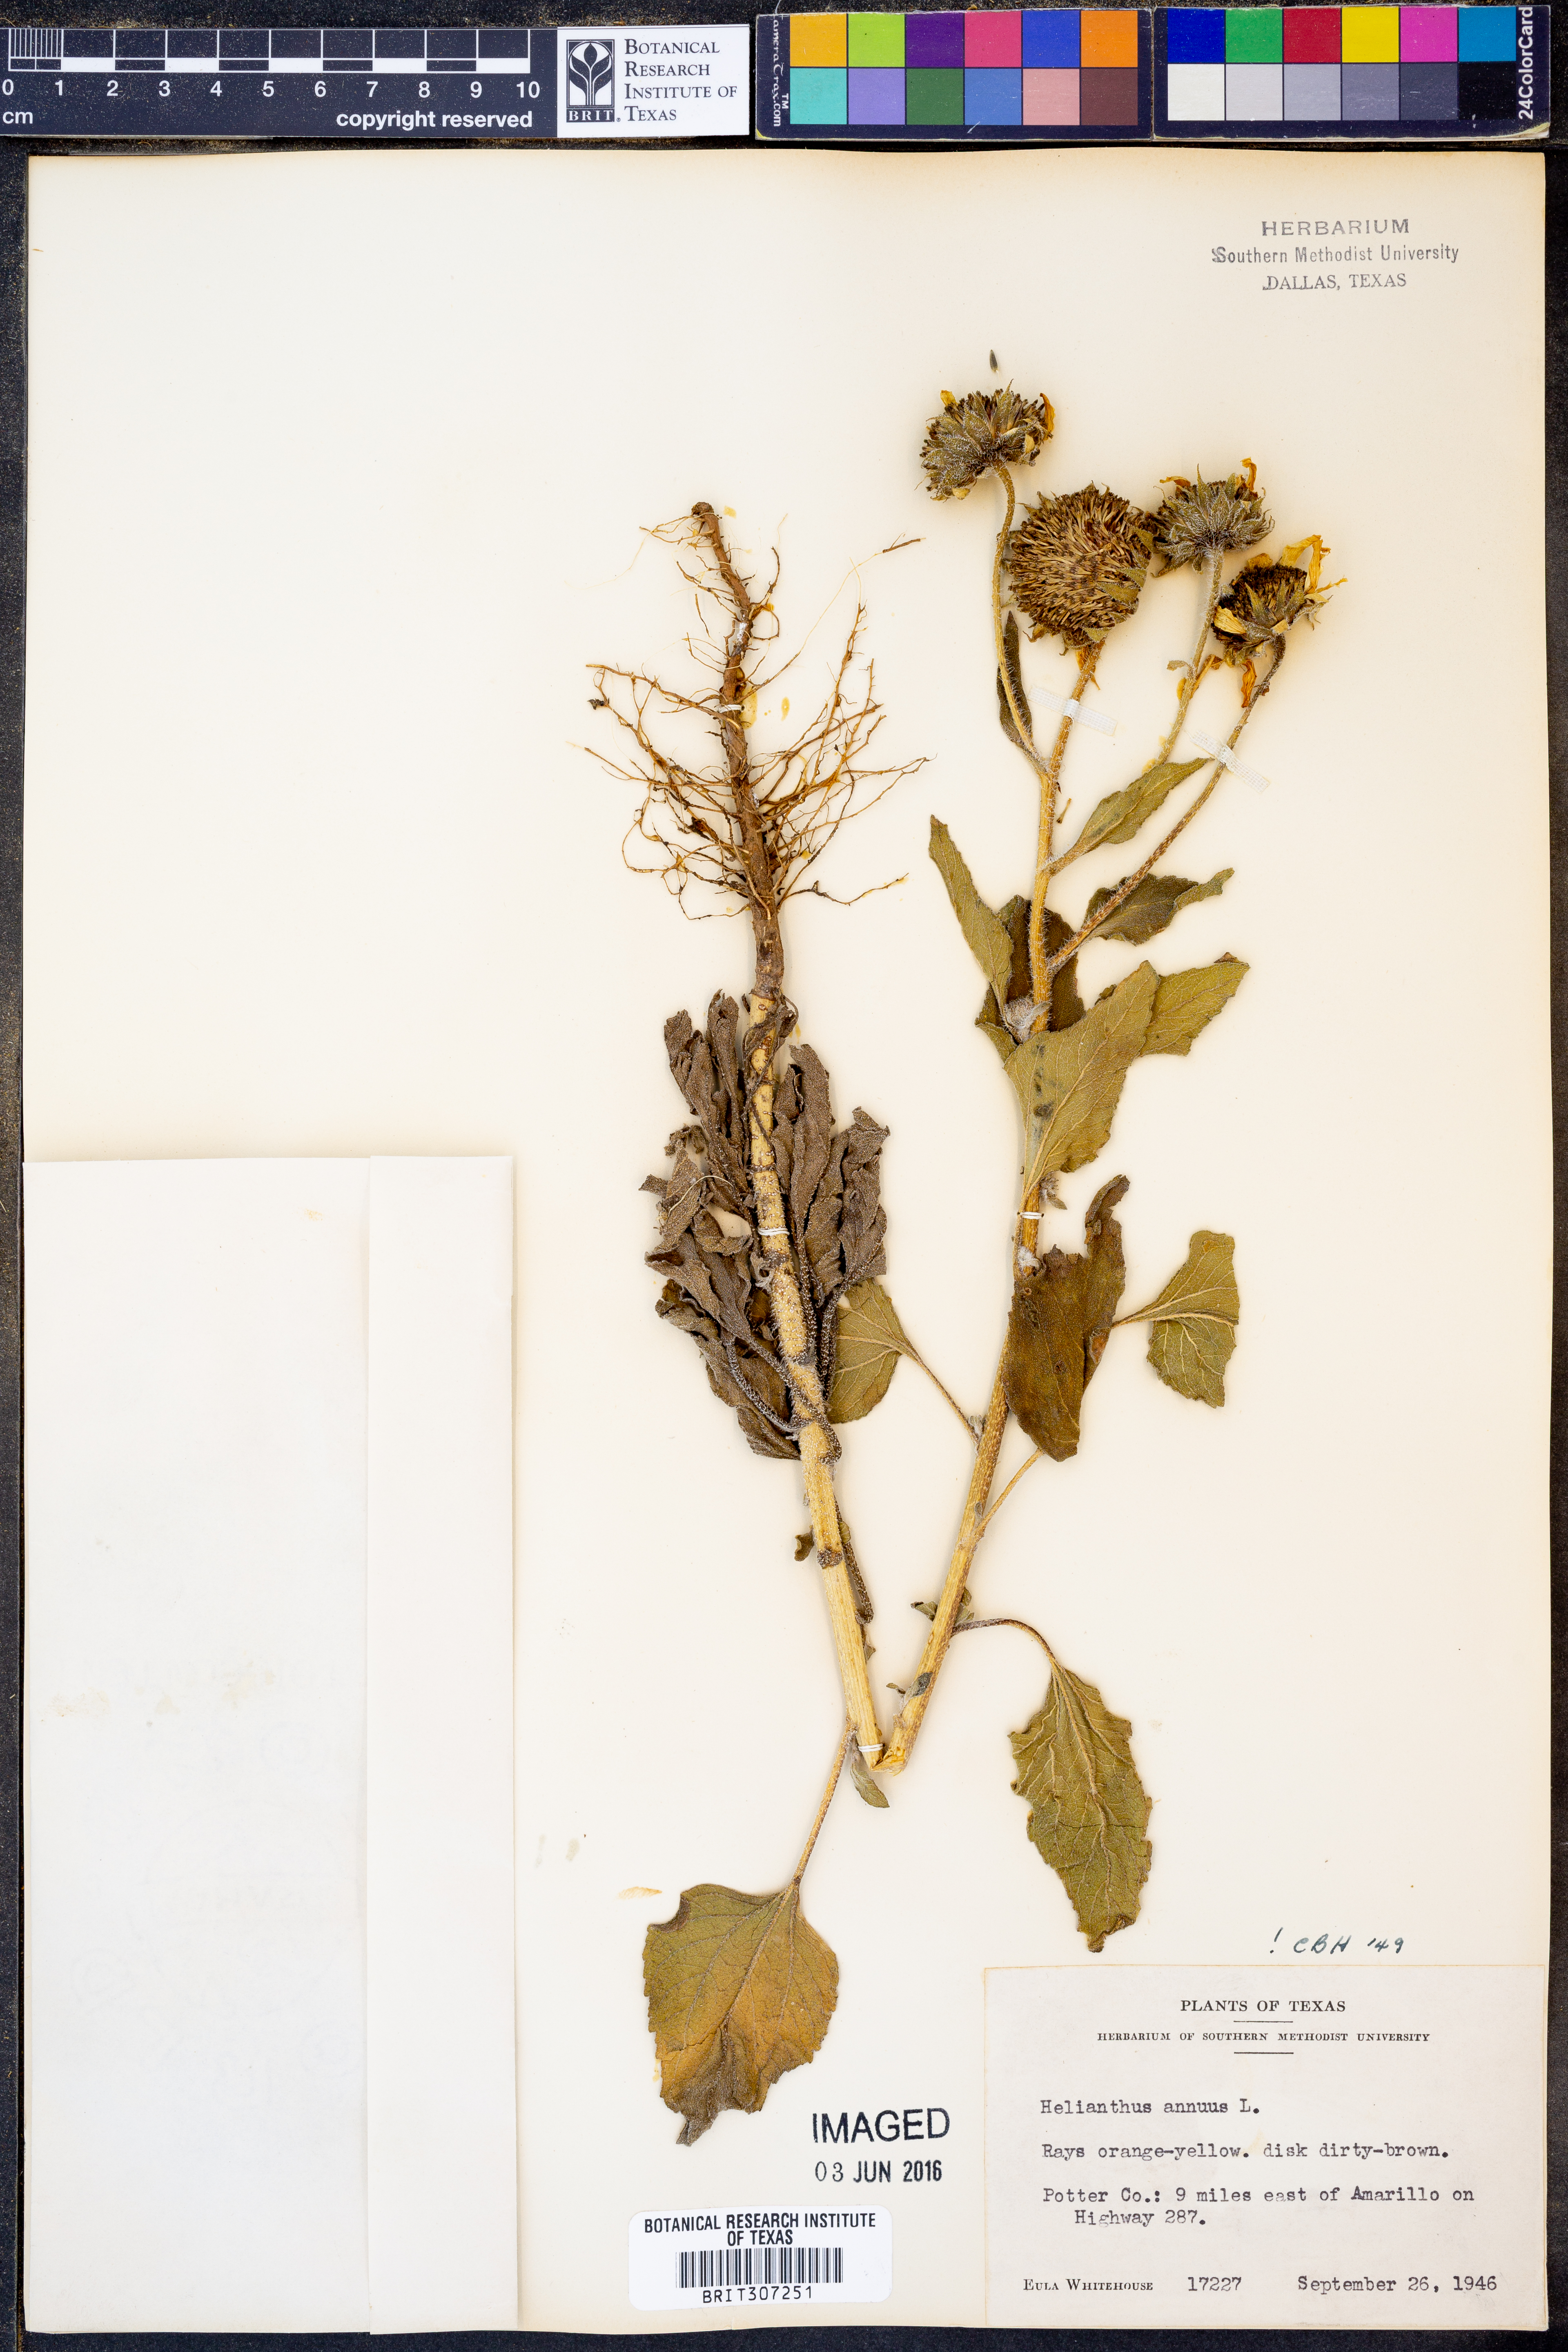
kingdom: Plantae
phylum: Tracheophyta
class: Magnoliopsida
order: Asterales
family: Asteraceae
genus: Helianthus
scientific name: Helianthus annuus
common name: Sunflower
